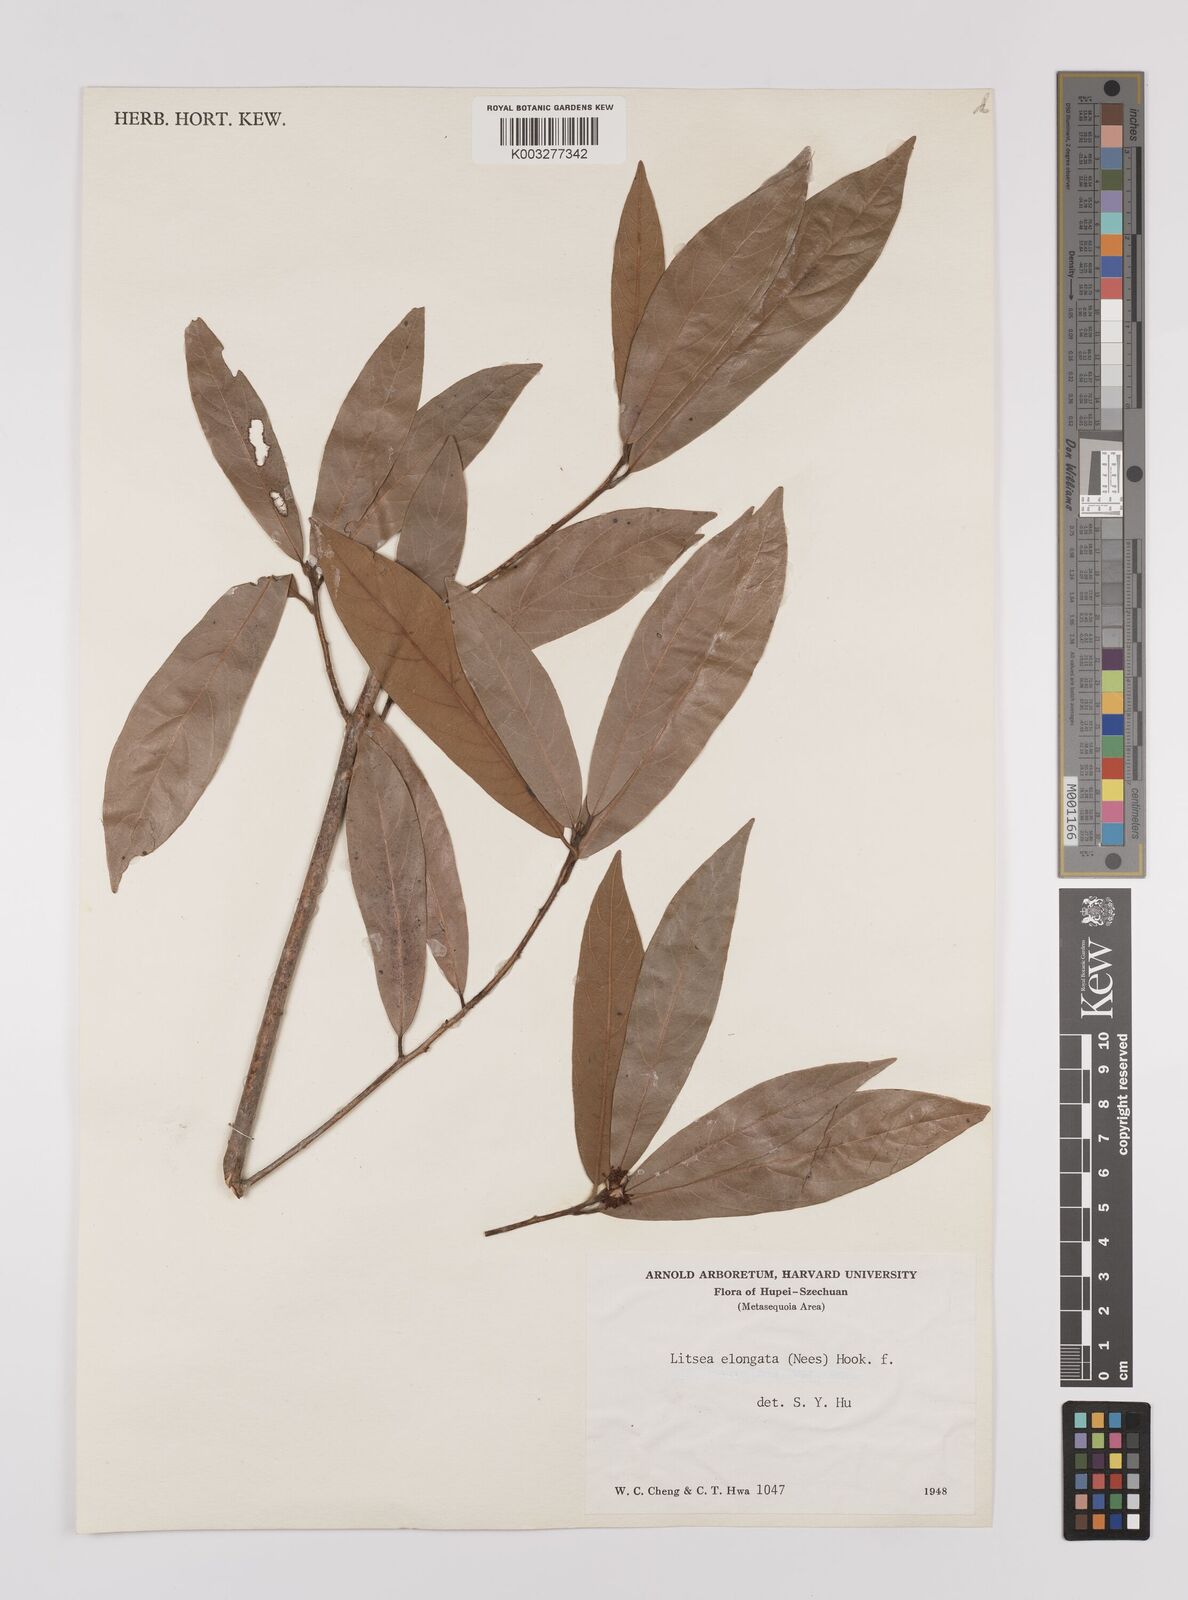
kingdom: Plantae
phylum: Tracheophyta
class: Magnoliopsida
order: Laurales
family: Lauraceae
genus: Litsea
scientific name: Litsea elongata
